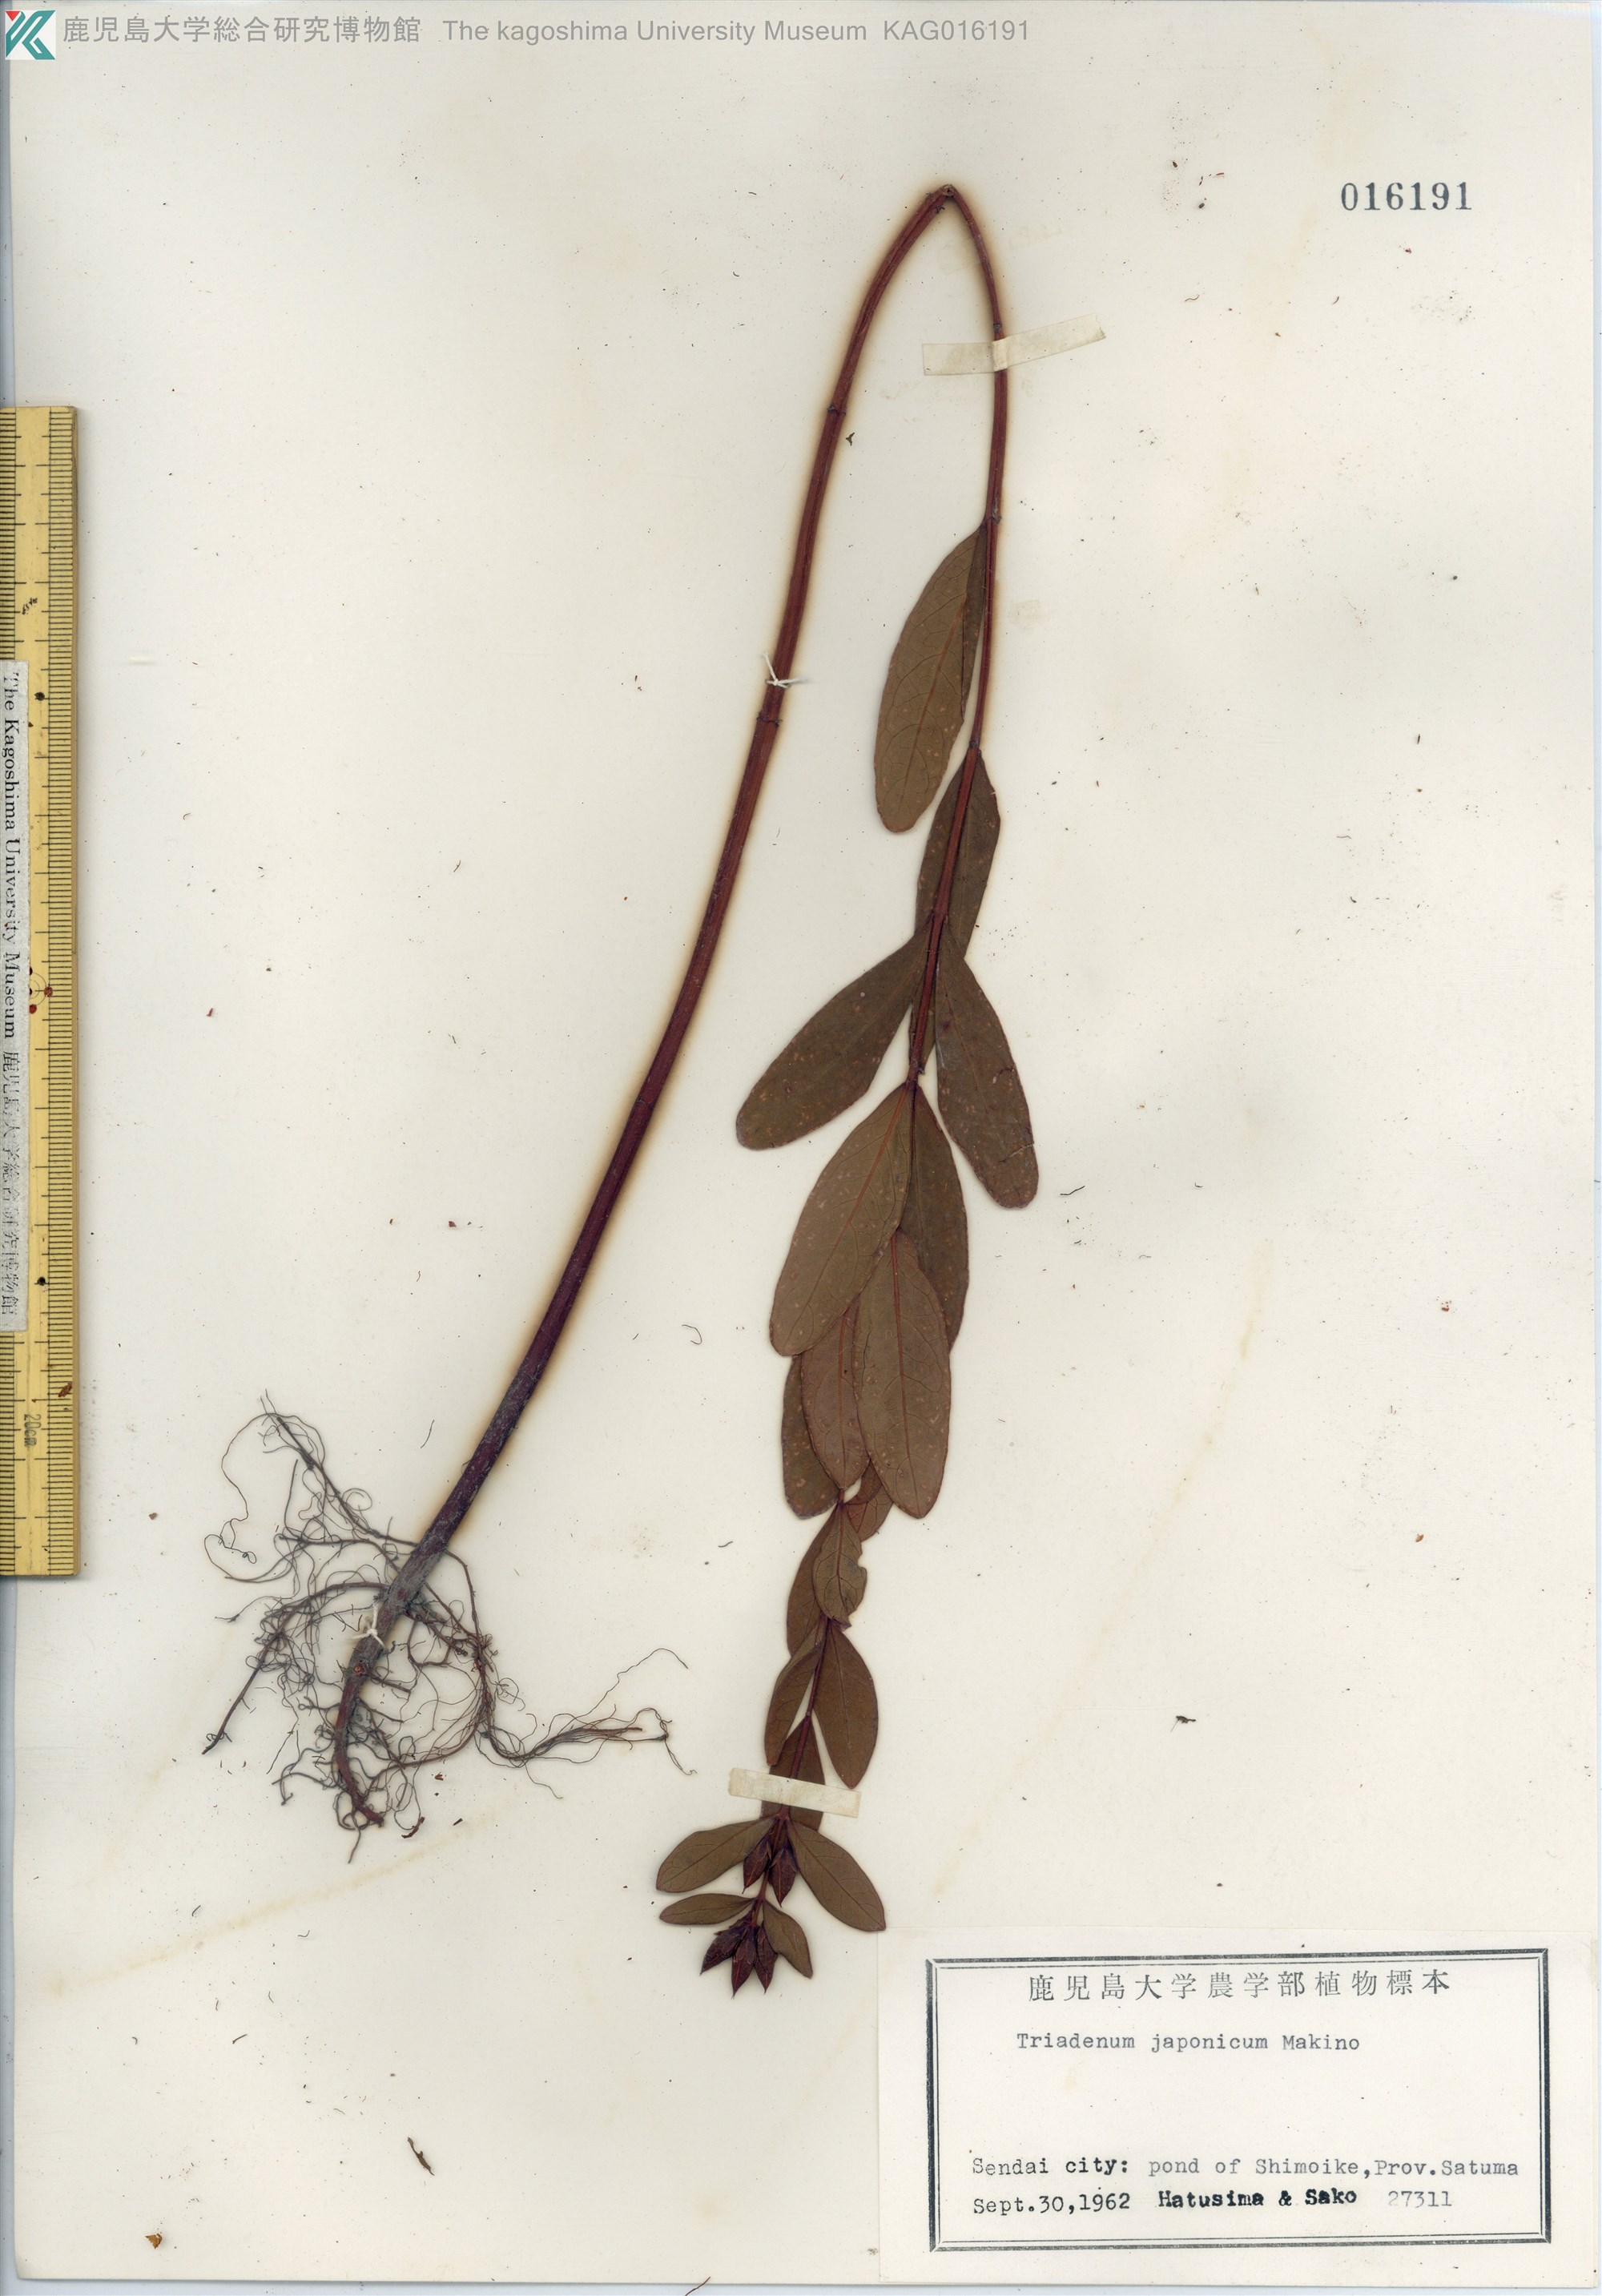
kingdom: Plantae
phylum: Tracheophyta
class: Magnoliopsida
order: Malpighiales
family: Hypericaceae
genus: Triadenum
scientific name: Triadenum japonicum
